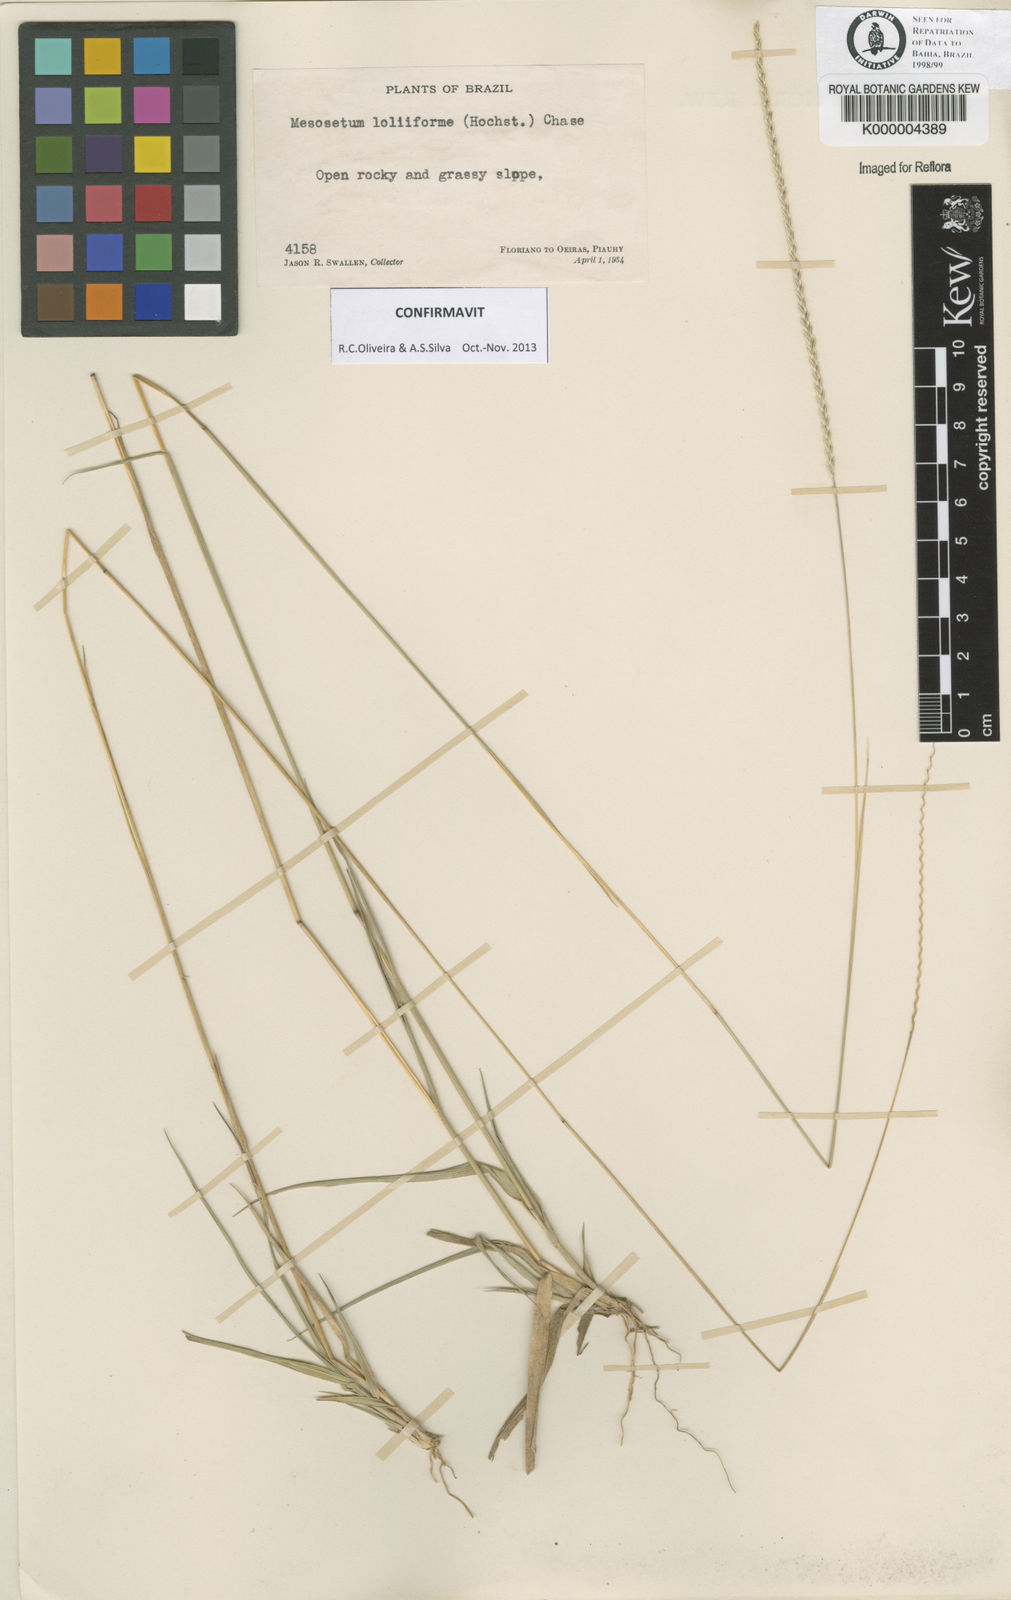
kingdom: Plantae
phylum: Tracheophyta
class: Liliopsida
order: Poales
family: Poaceae
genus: Mesosetum
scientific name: Mesosetum
